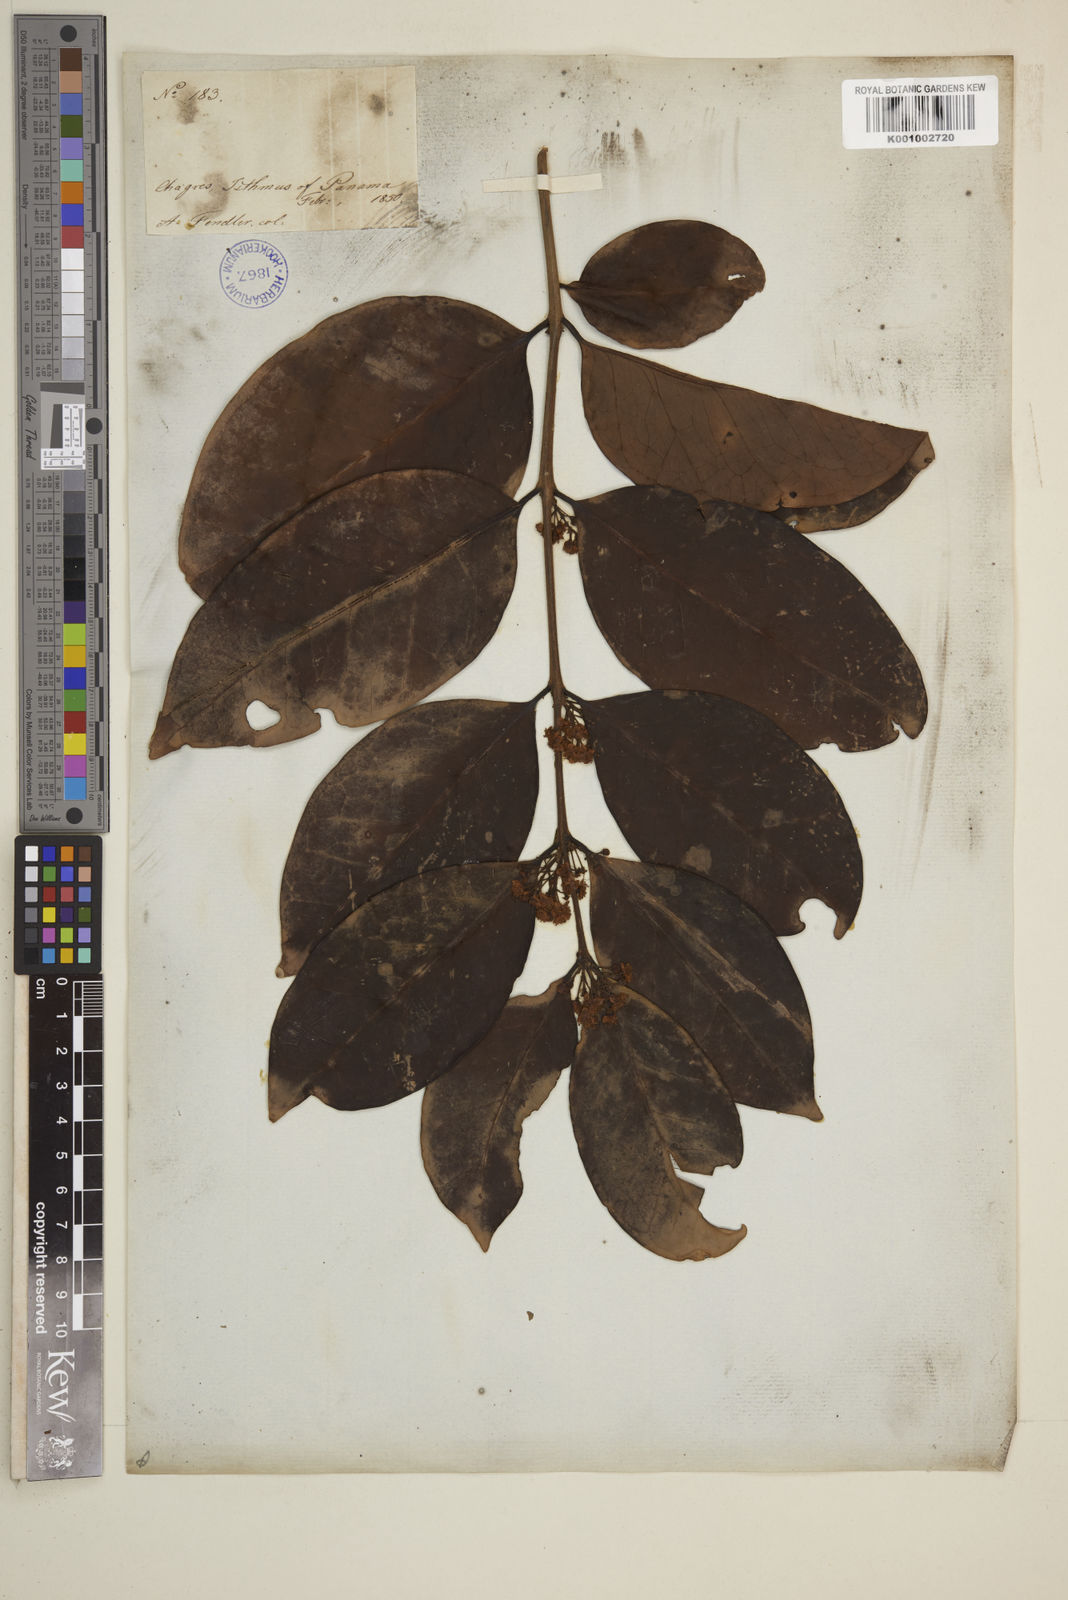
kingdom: Plantae
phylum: Tracheophyta
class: Magnoliopsida
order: Myrtales
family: Myrtaceae
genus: Eugenia
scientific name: Eugenia acapulcensis
